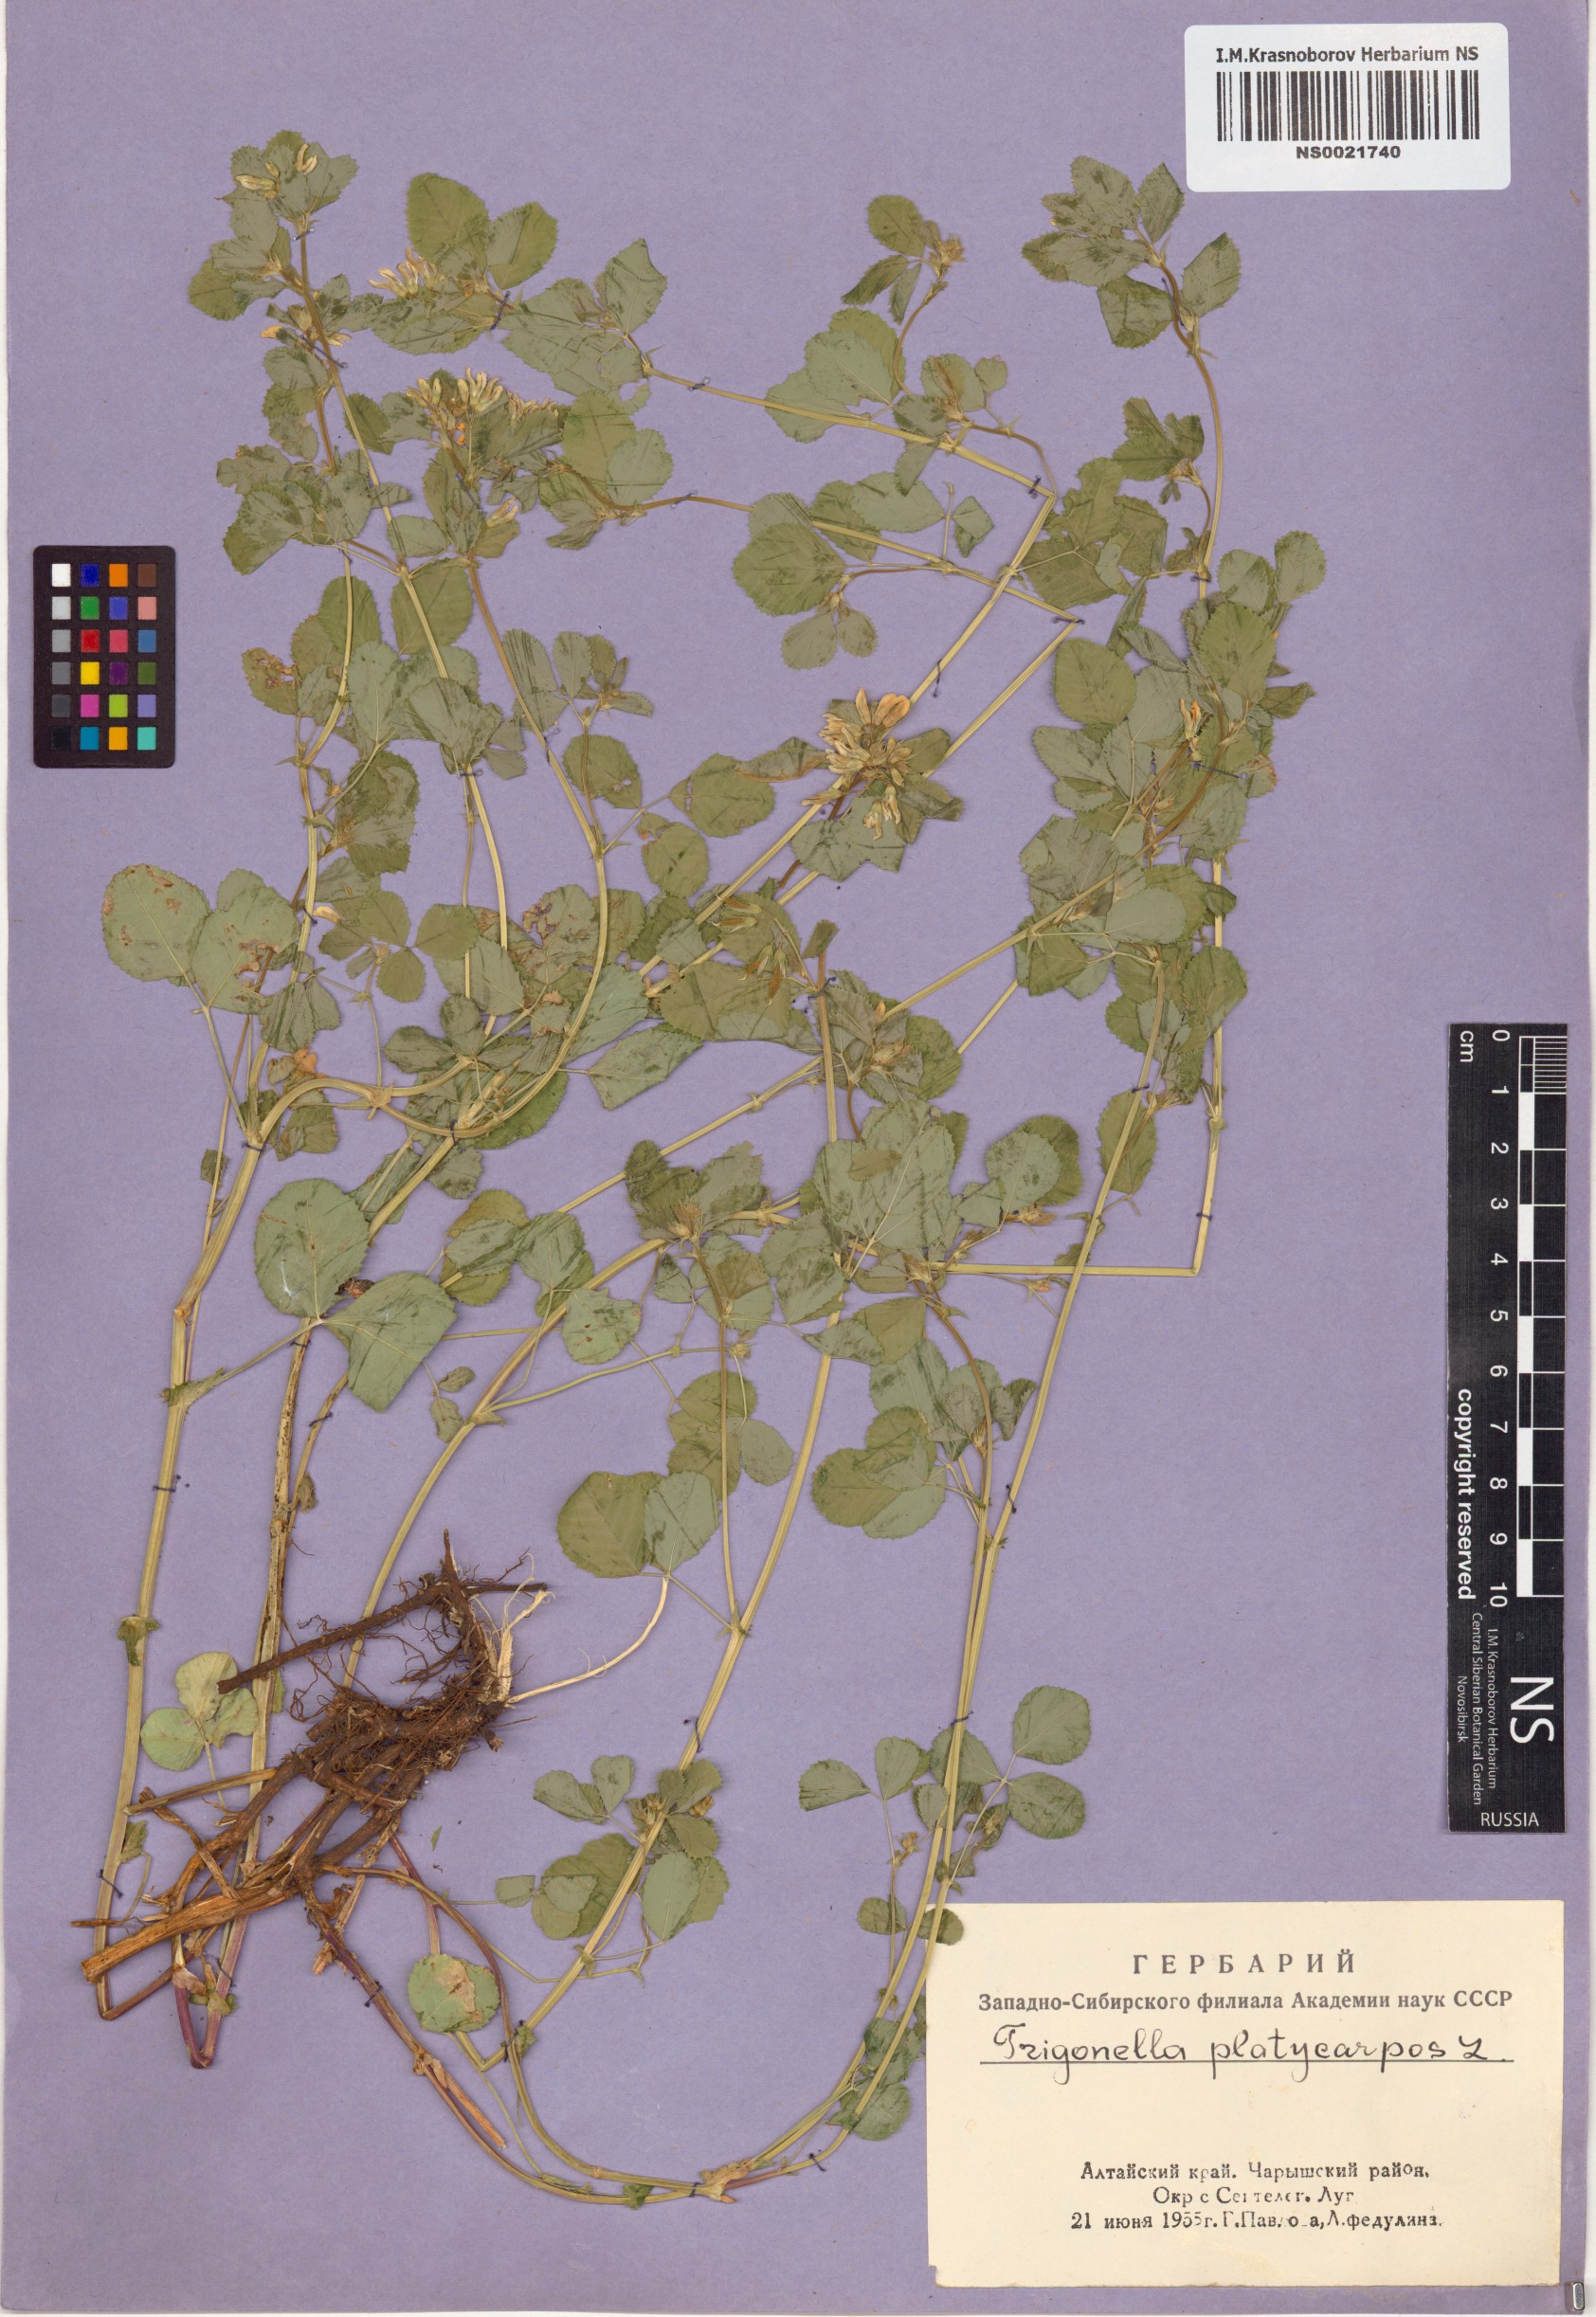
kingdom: Plantae
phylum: Tracheophyta
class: Magnoliopsida
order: Fabales
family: Fabaceae
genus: Medicago
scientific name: Medicago platycarpos
